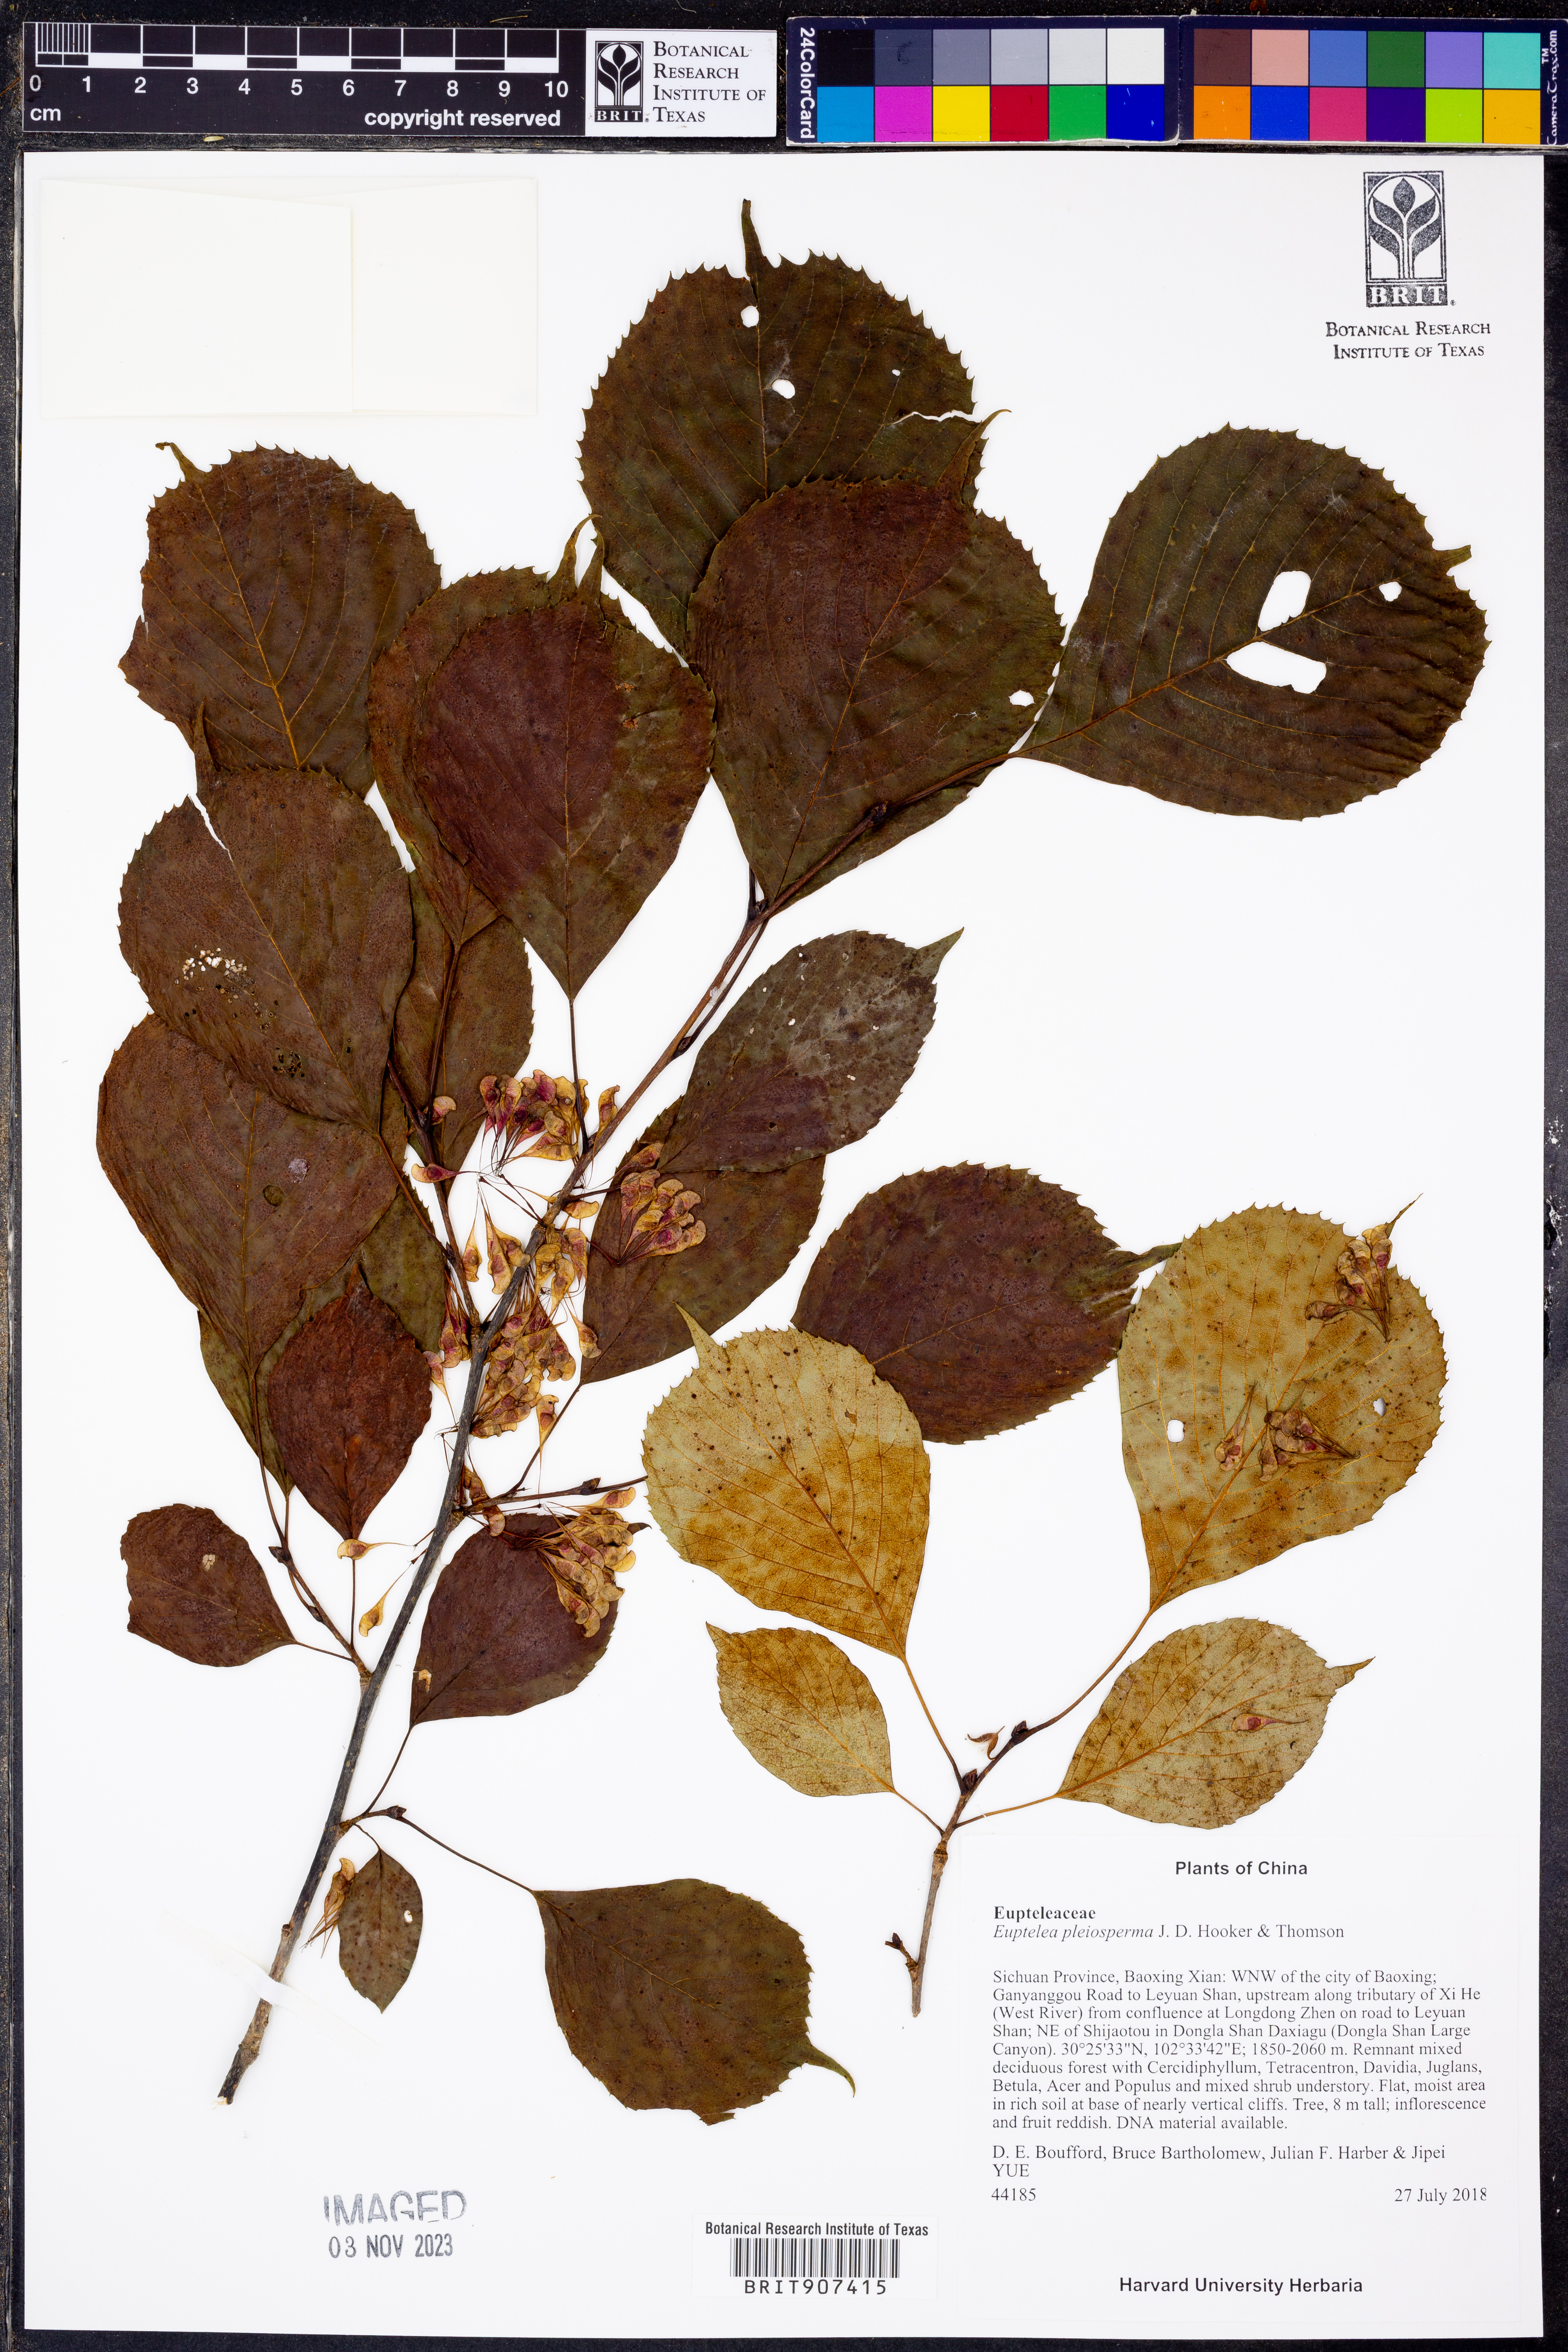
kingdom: Plantae
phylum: Tracheophyta
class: Magnoliopsida
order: Ranunculales
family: Eupteleaceae
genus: Euptelea
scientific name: Euptelea pleiosperma
